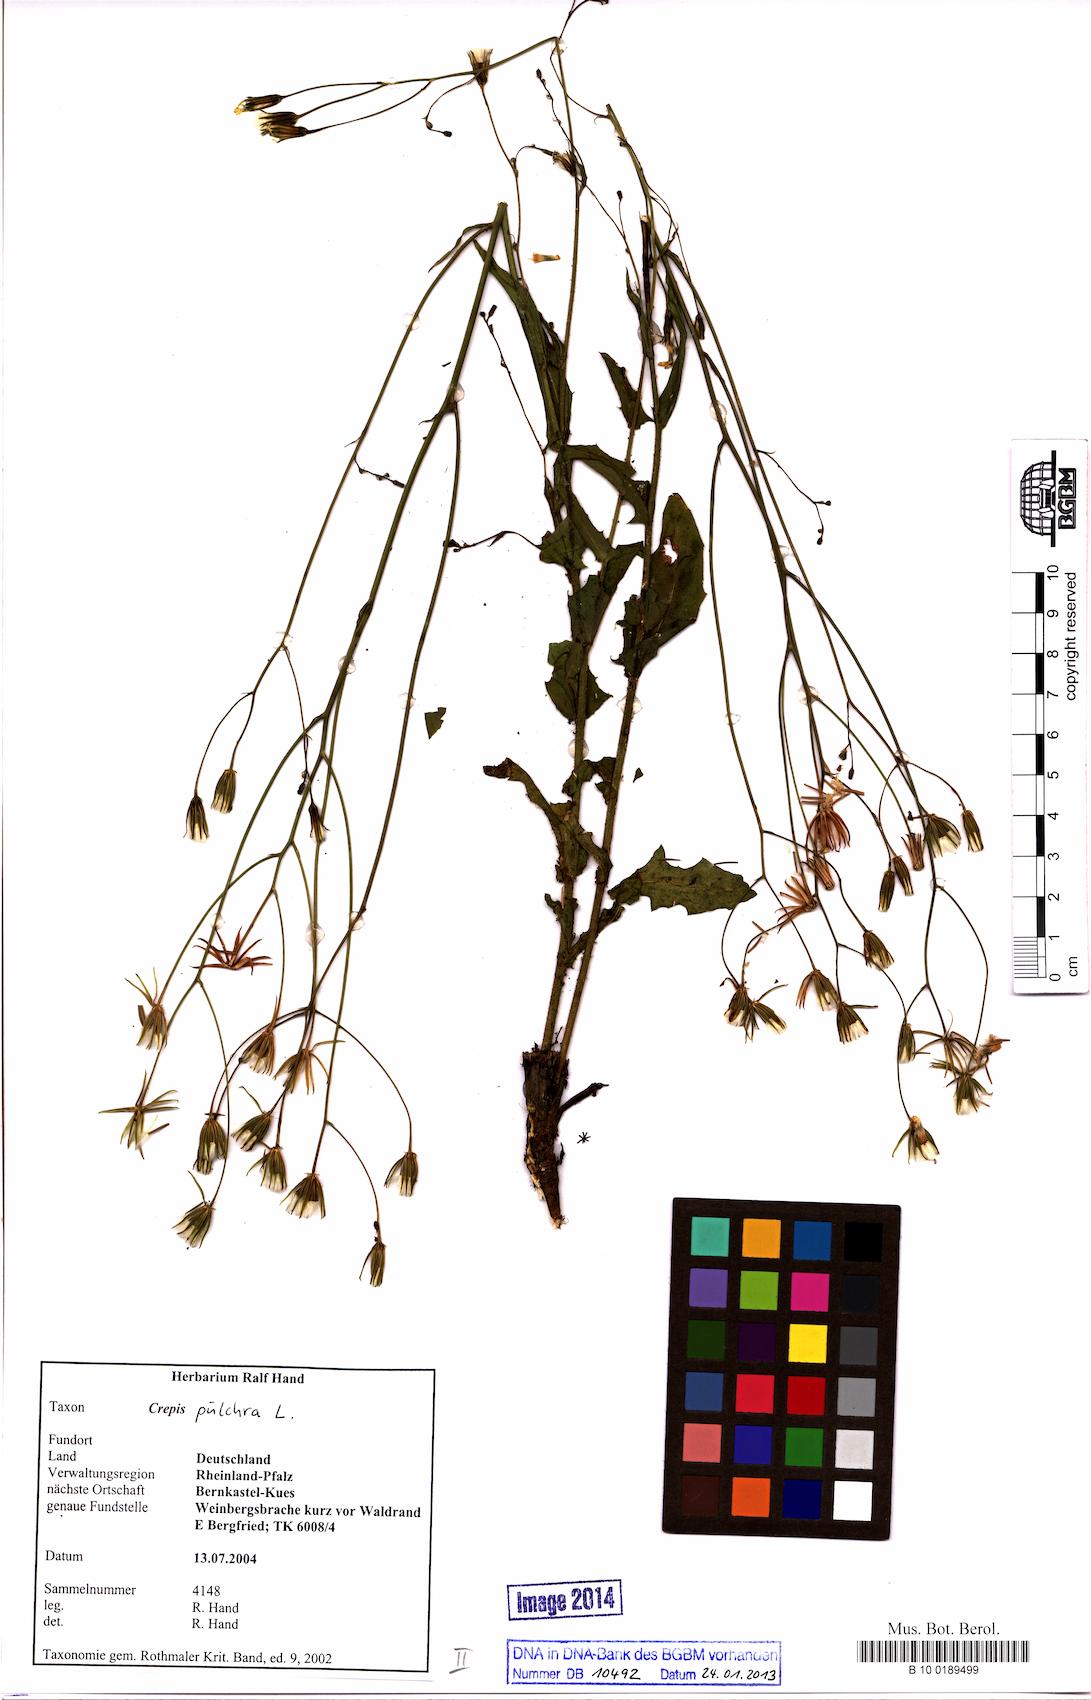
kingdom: Plantae
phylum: Tracheophyta
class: Magnoliopsida
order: Asterales
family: Asteraceae
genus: Crepis
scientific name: Crepis pulchra
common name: Hawk's-beard
